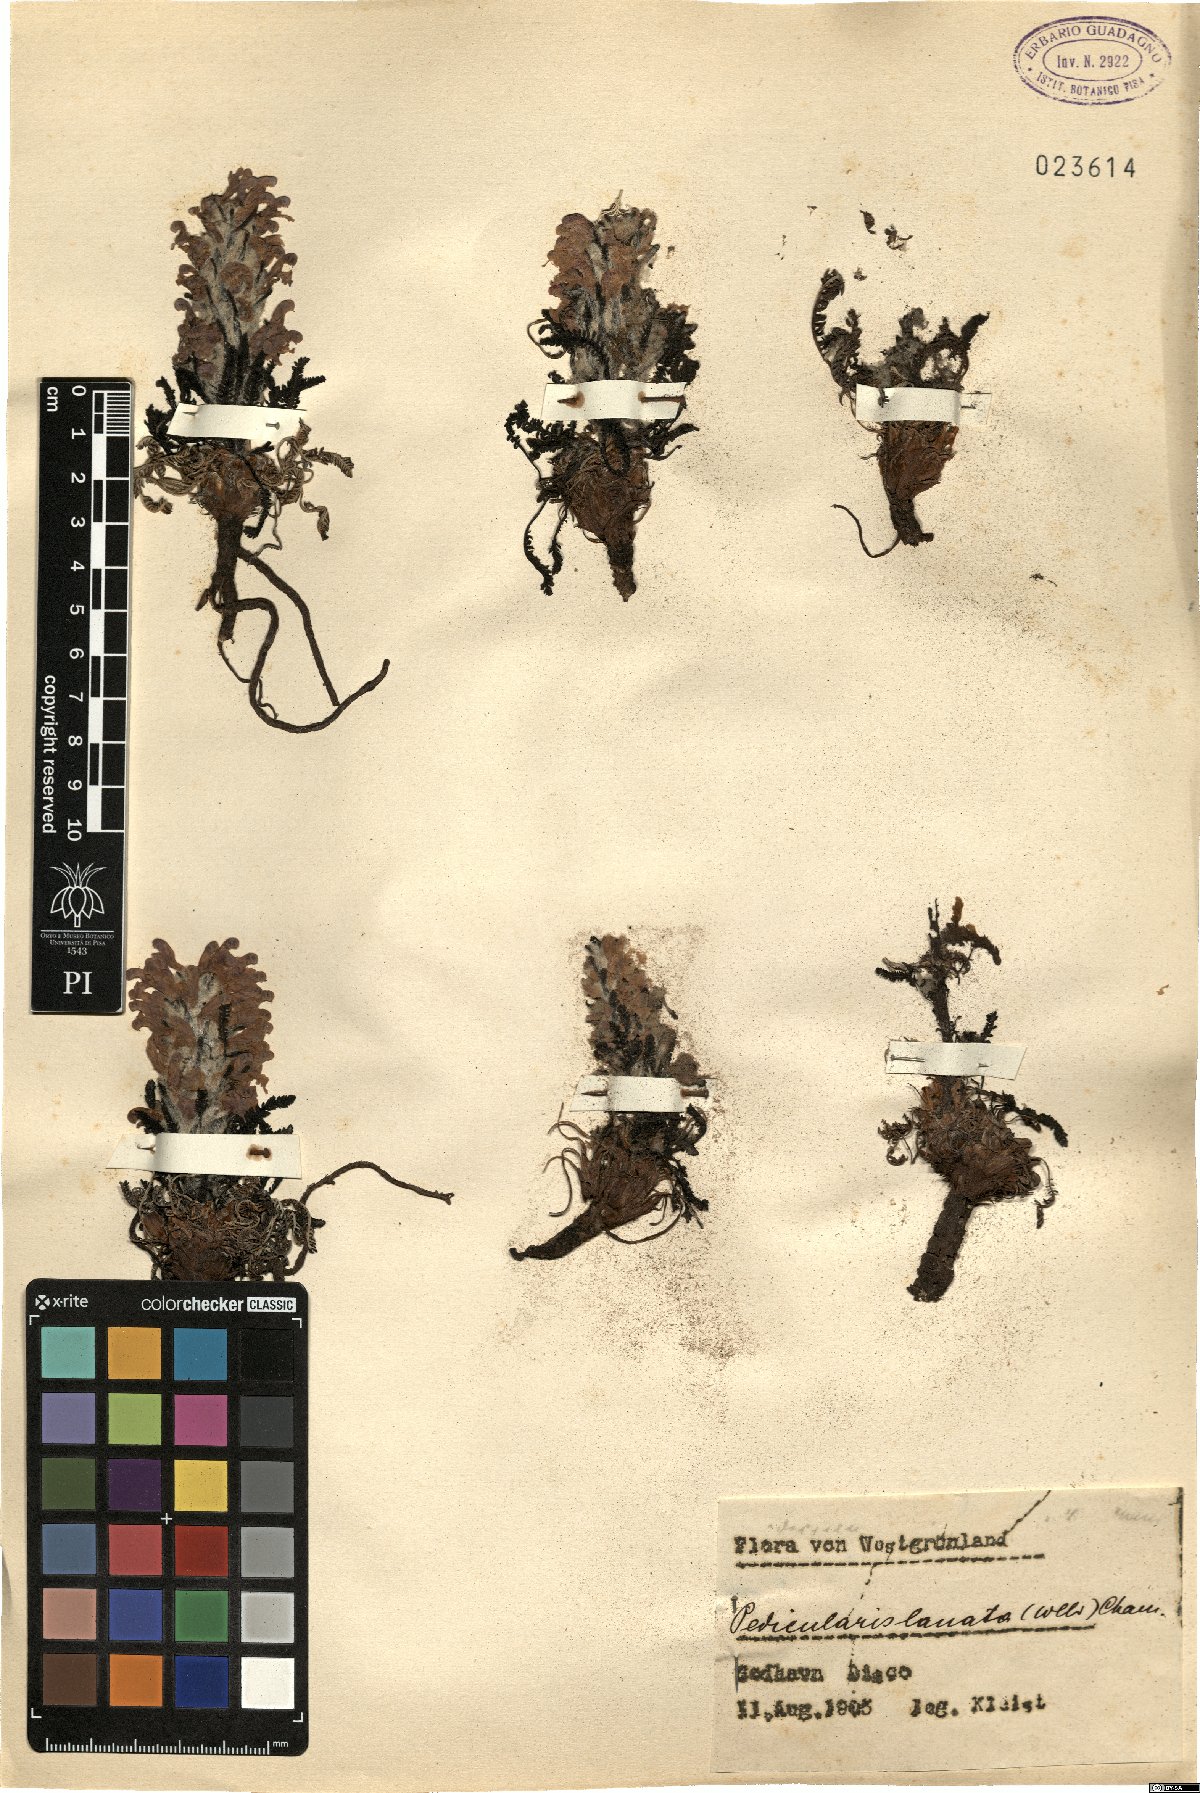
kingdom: Plantae
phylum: Tracheophyta
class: Magnoliopsida
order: Lamiales
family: Orobanchaceae
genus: Pedicularis
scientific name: Pedicularis lanata
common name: Woolly lousewort
